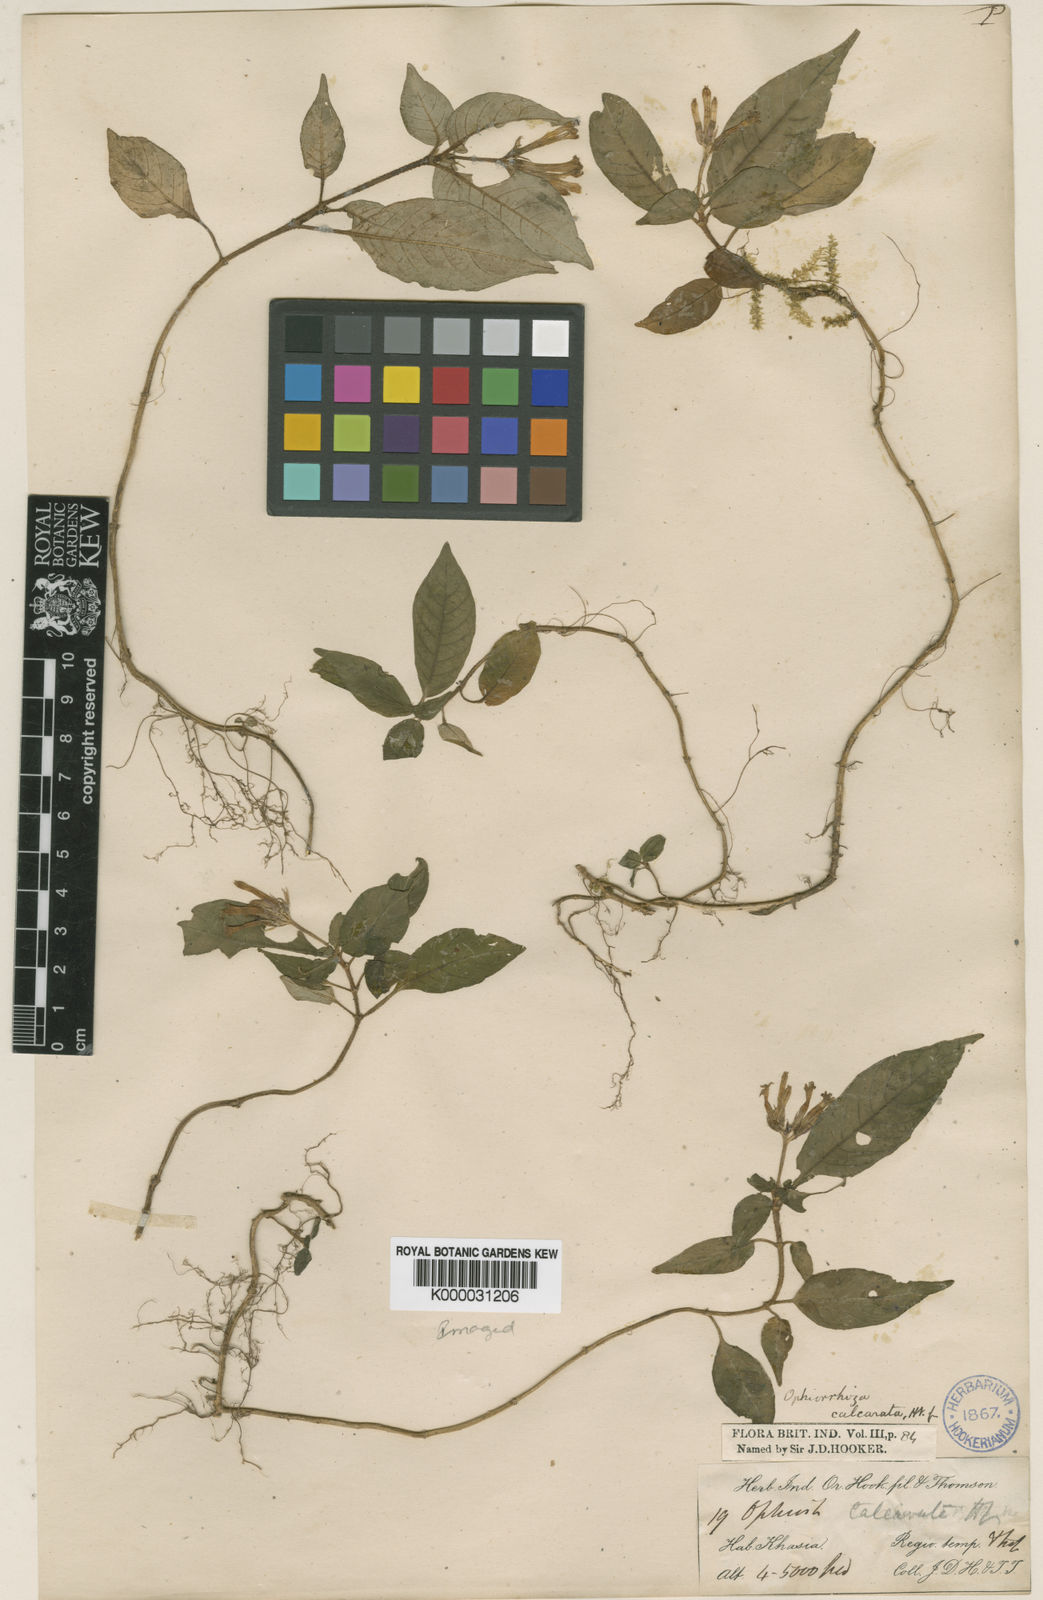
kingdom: Plantae
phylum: Tracheophyta
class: Magnoliopsida
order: Gentianales
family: Rubiaceae
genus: Ophiorrhiza
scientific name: Ophiorrhiza repens
